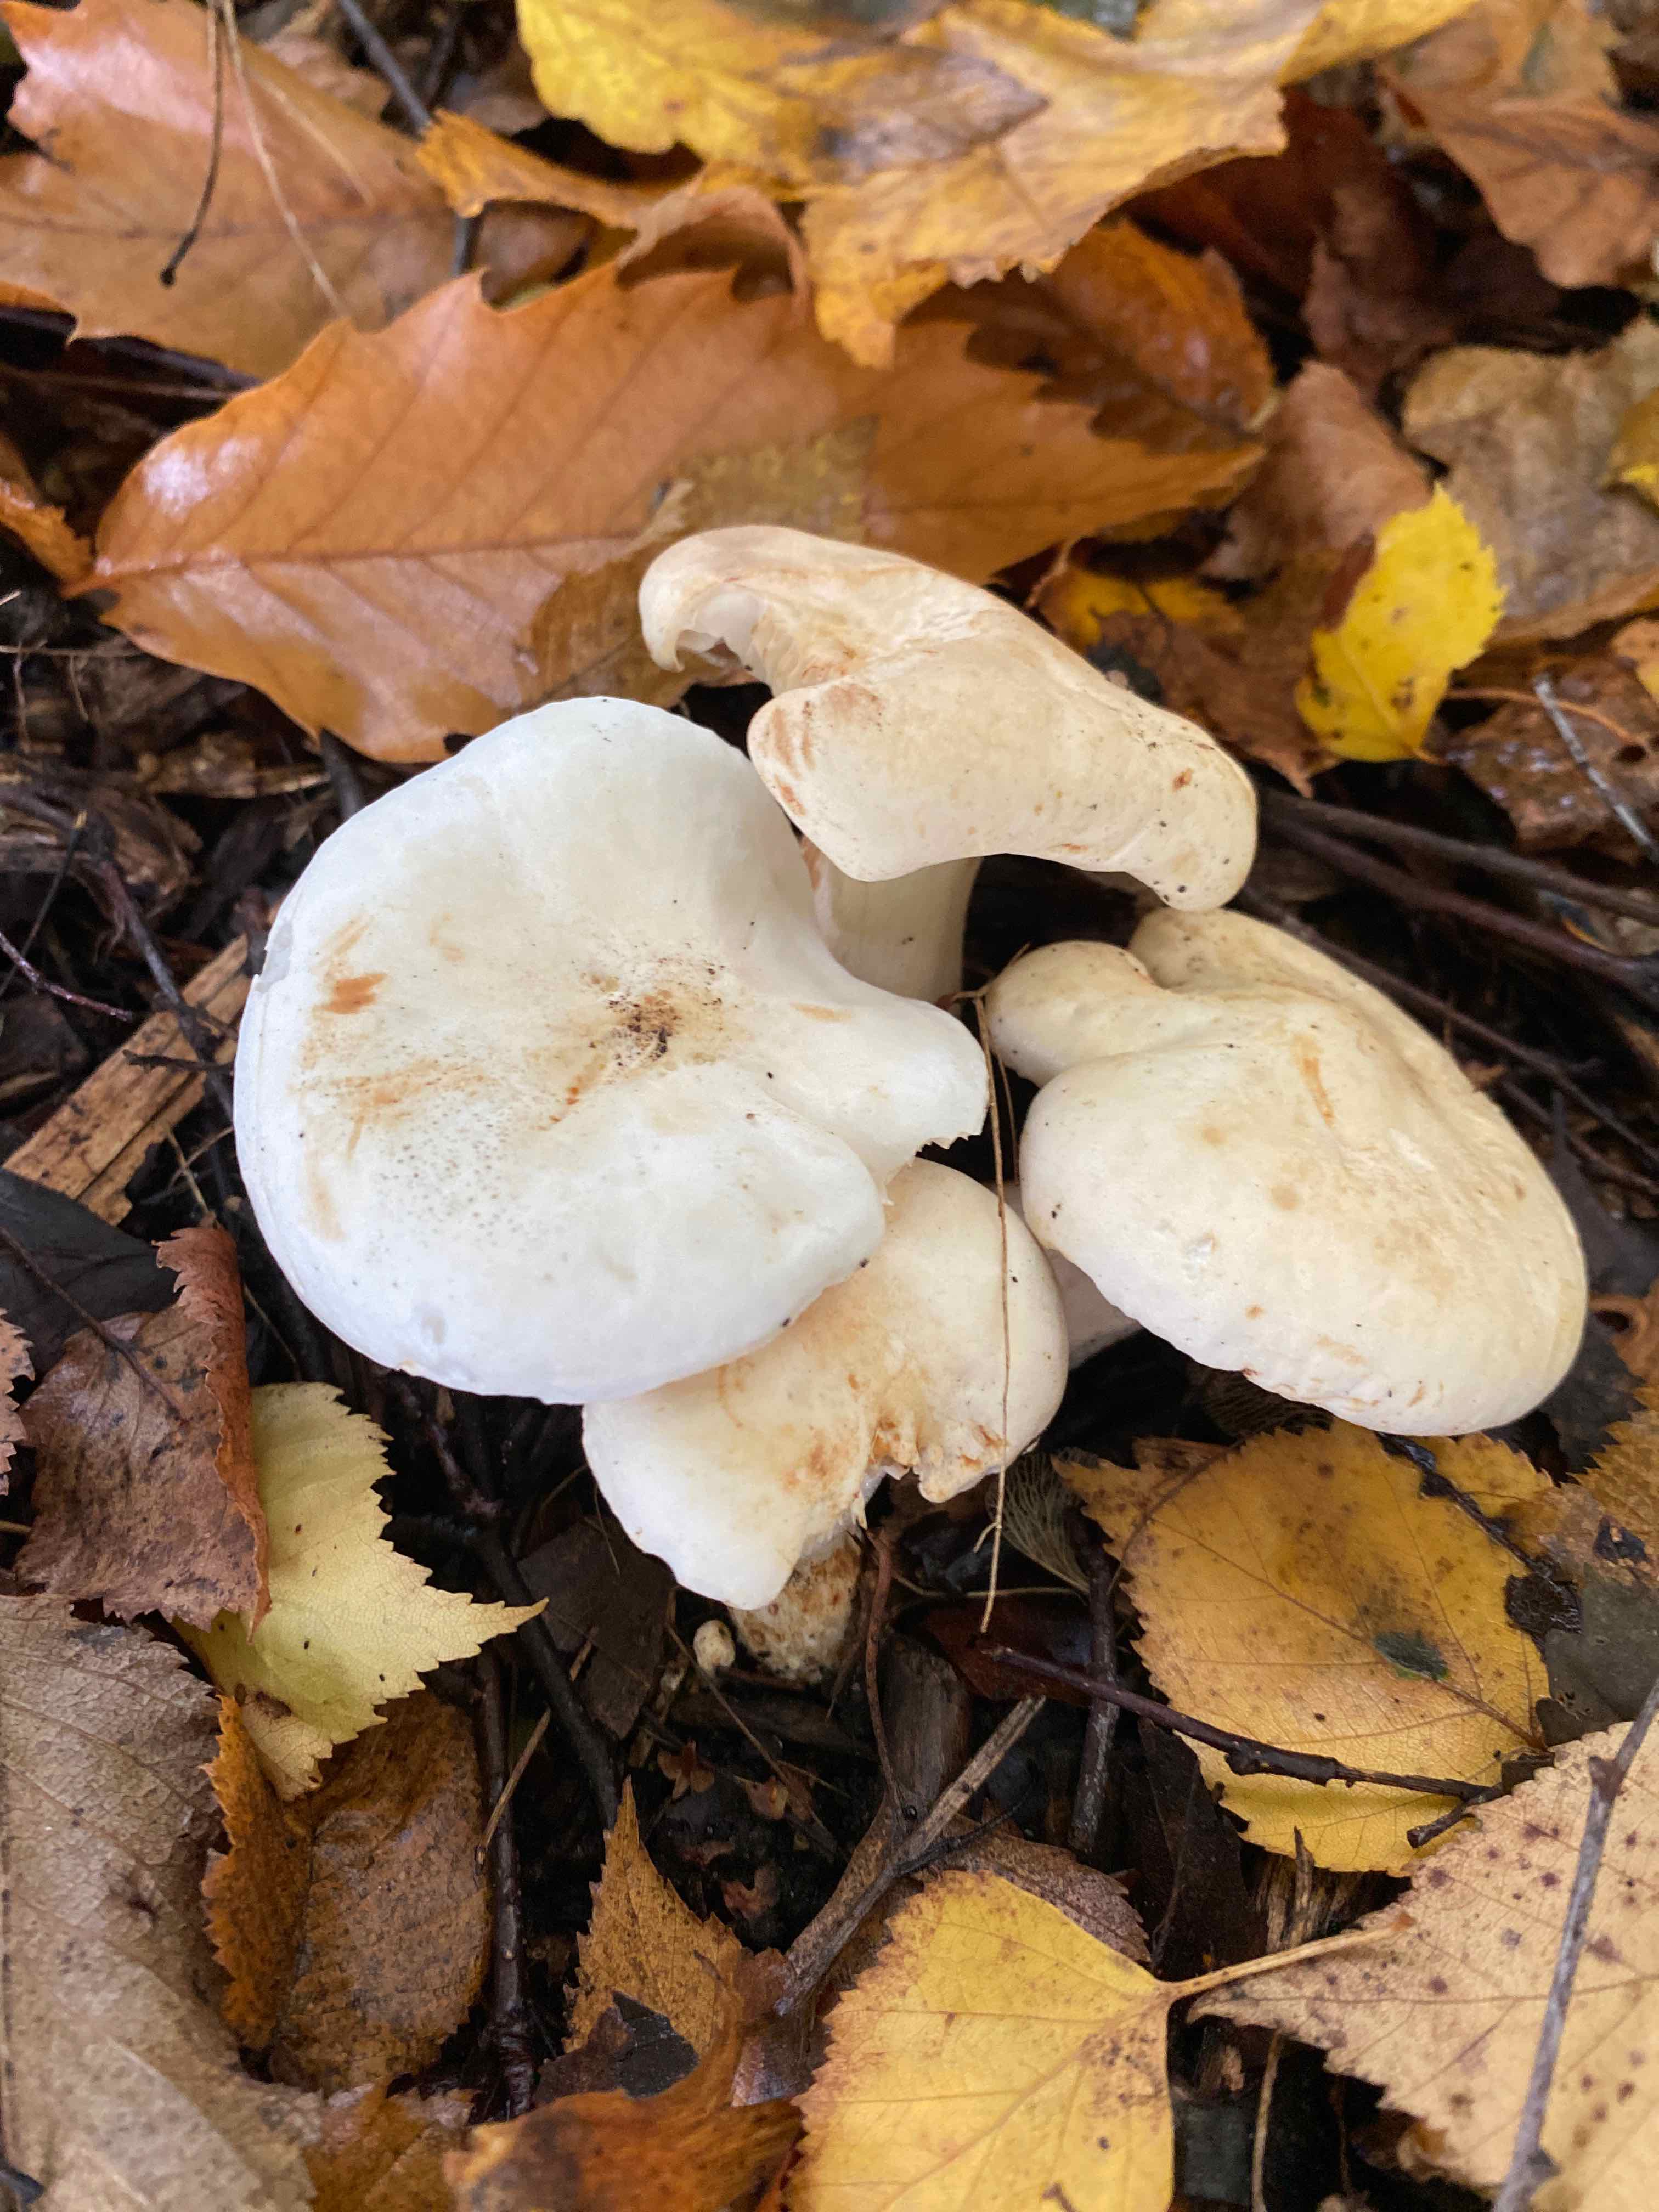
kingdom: Fungi
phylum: Basidiomycota
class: Agaricomycetes
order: Agaricales
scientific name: Agaricales
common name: champignonordenen
